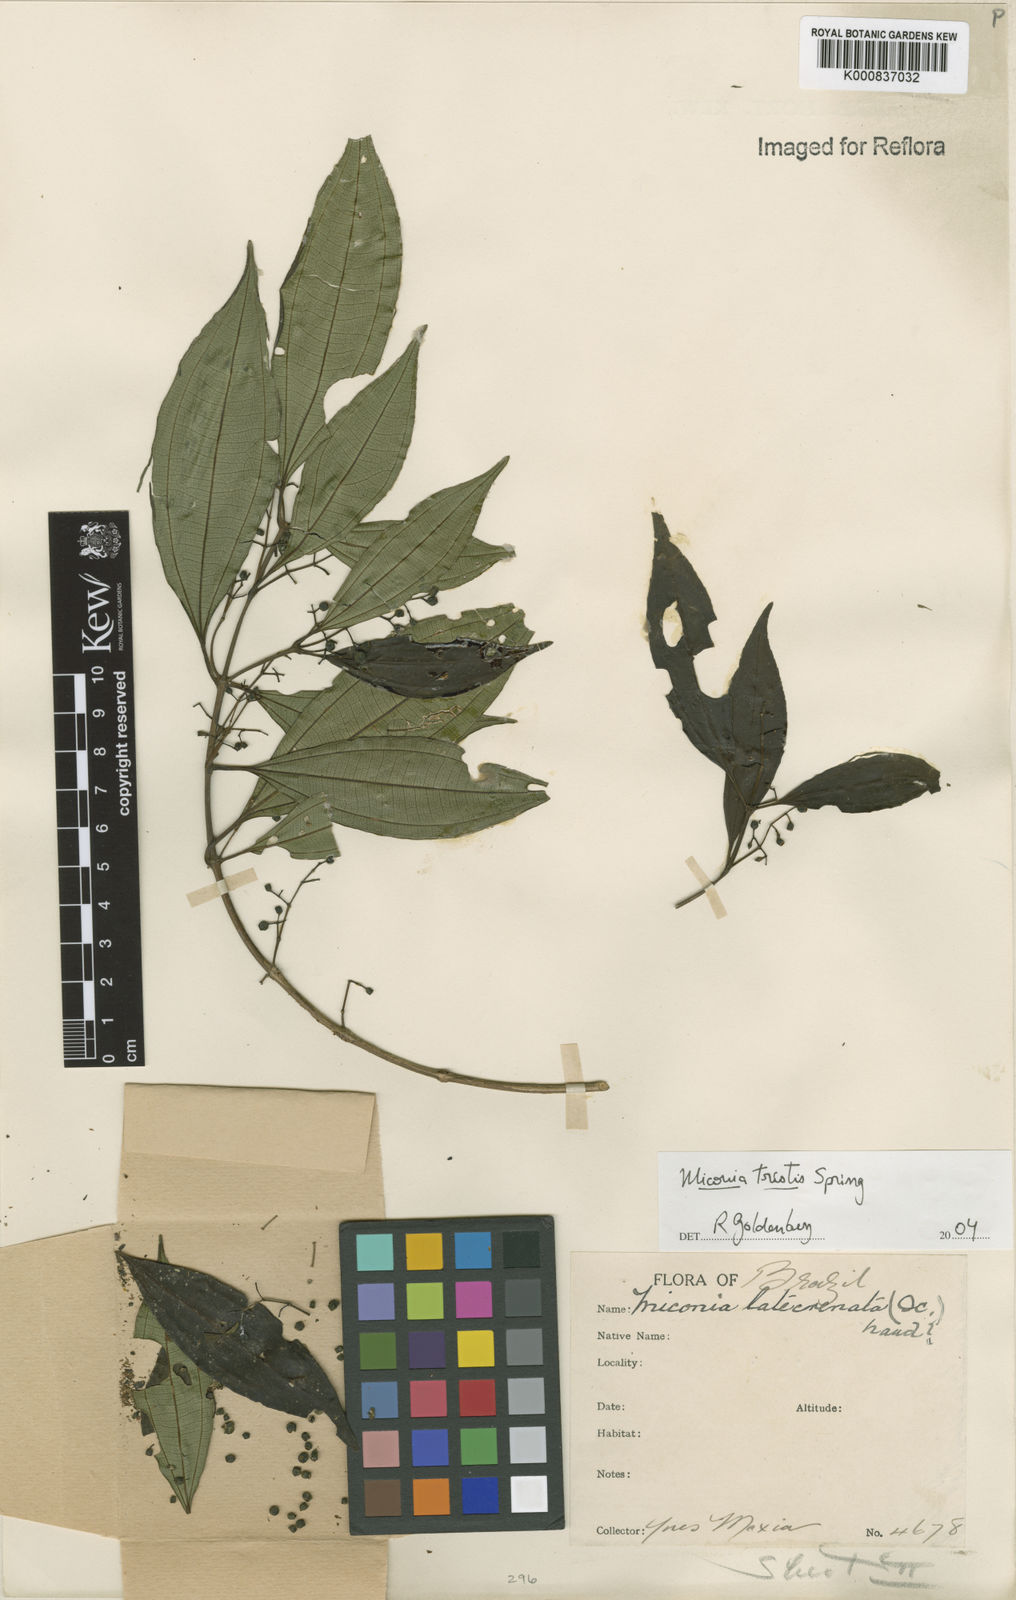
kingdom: Plantae
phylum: Tracheophyta
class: Magnoliopsida
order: Myrtales
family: Melastomataceae
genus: Miconia
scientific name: Miconia
